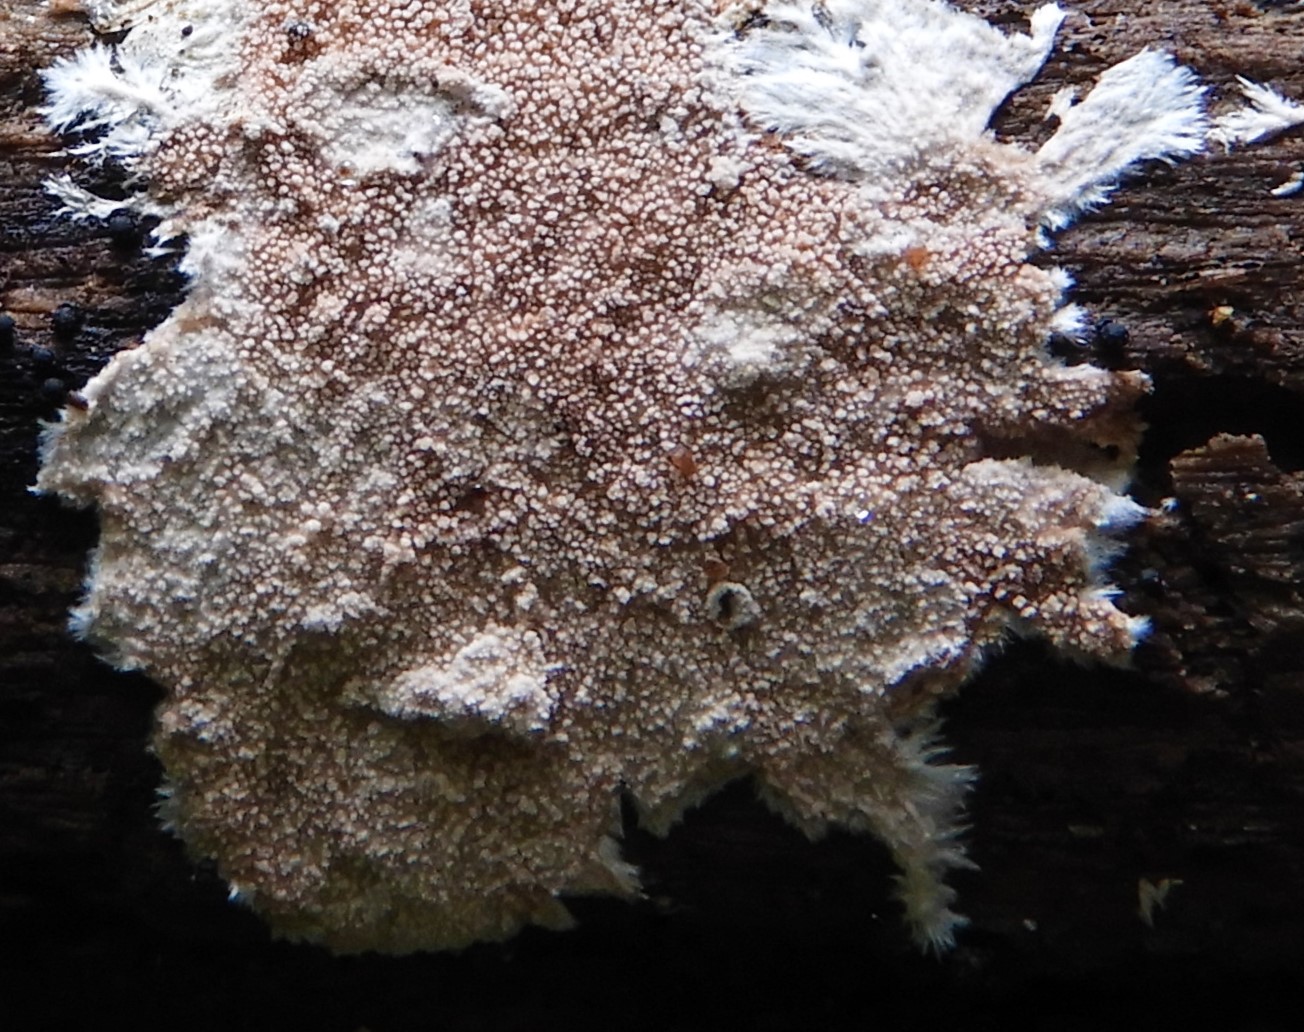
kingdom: Fungi
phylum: Basidiomycota
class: Agaricomycetes
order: Polyporales
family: Steccherinaceae
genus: Steccherinum
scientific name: Steccherinum fimbriatum
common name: trådet skønpig
